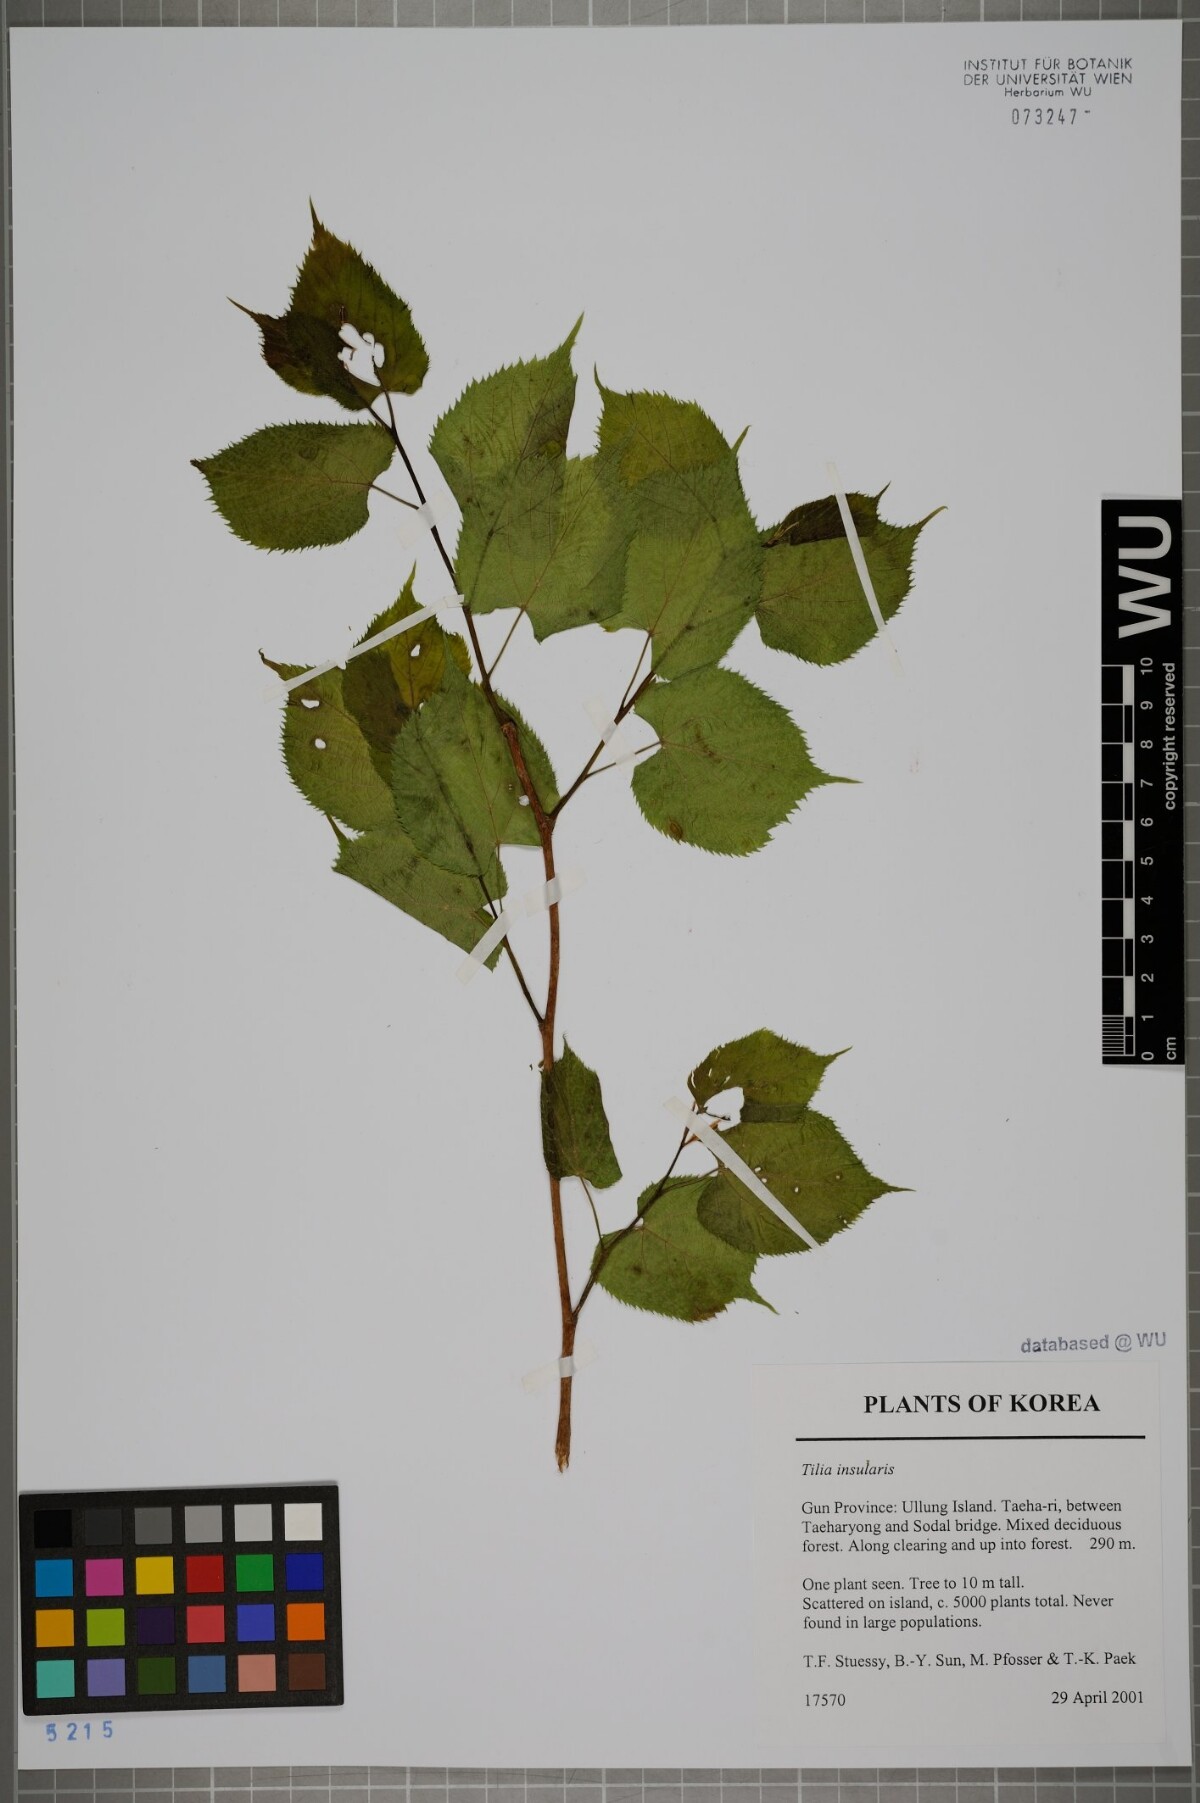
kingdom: Plantae
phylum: Tracheophyta
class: Magnoliopsida
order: Malvales
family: Malvaceae
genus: Tilia
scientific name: Tilia amurensis
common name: Amur lime
